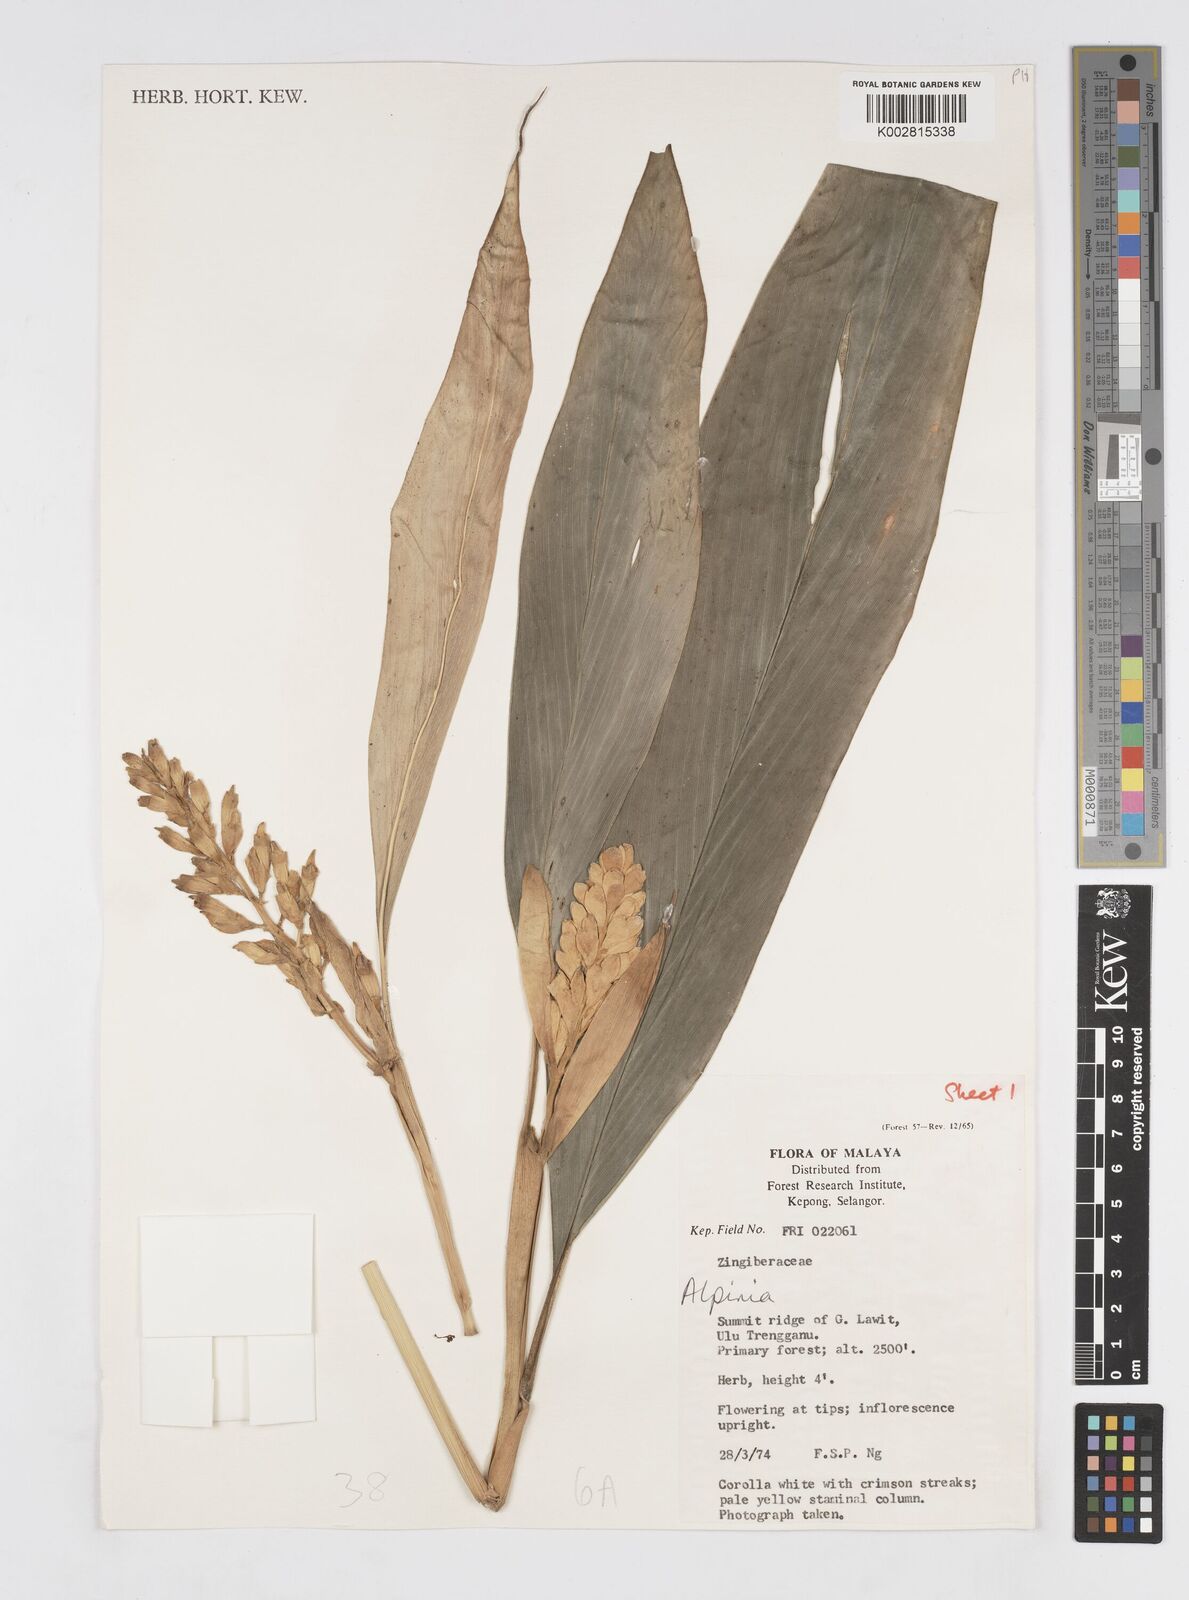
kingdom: Plantae
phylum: Tracheophyta
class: Liliopsida
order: Zingiberales
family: Zingiberaceae
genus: Alpinia
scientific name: Alpinia
